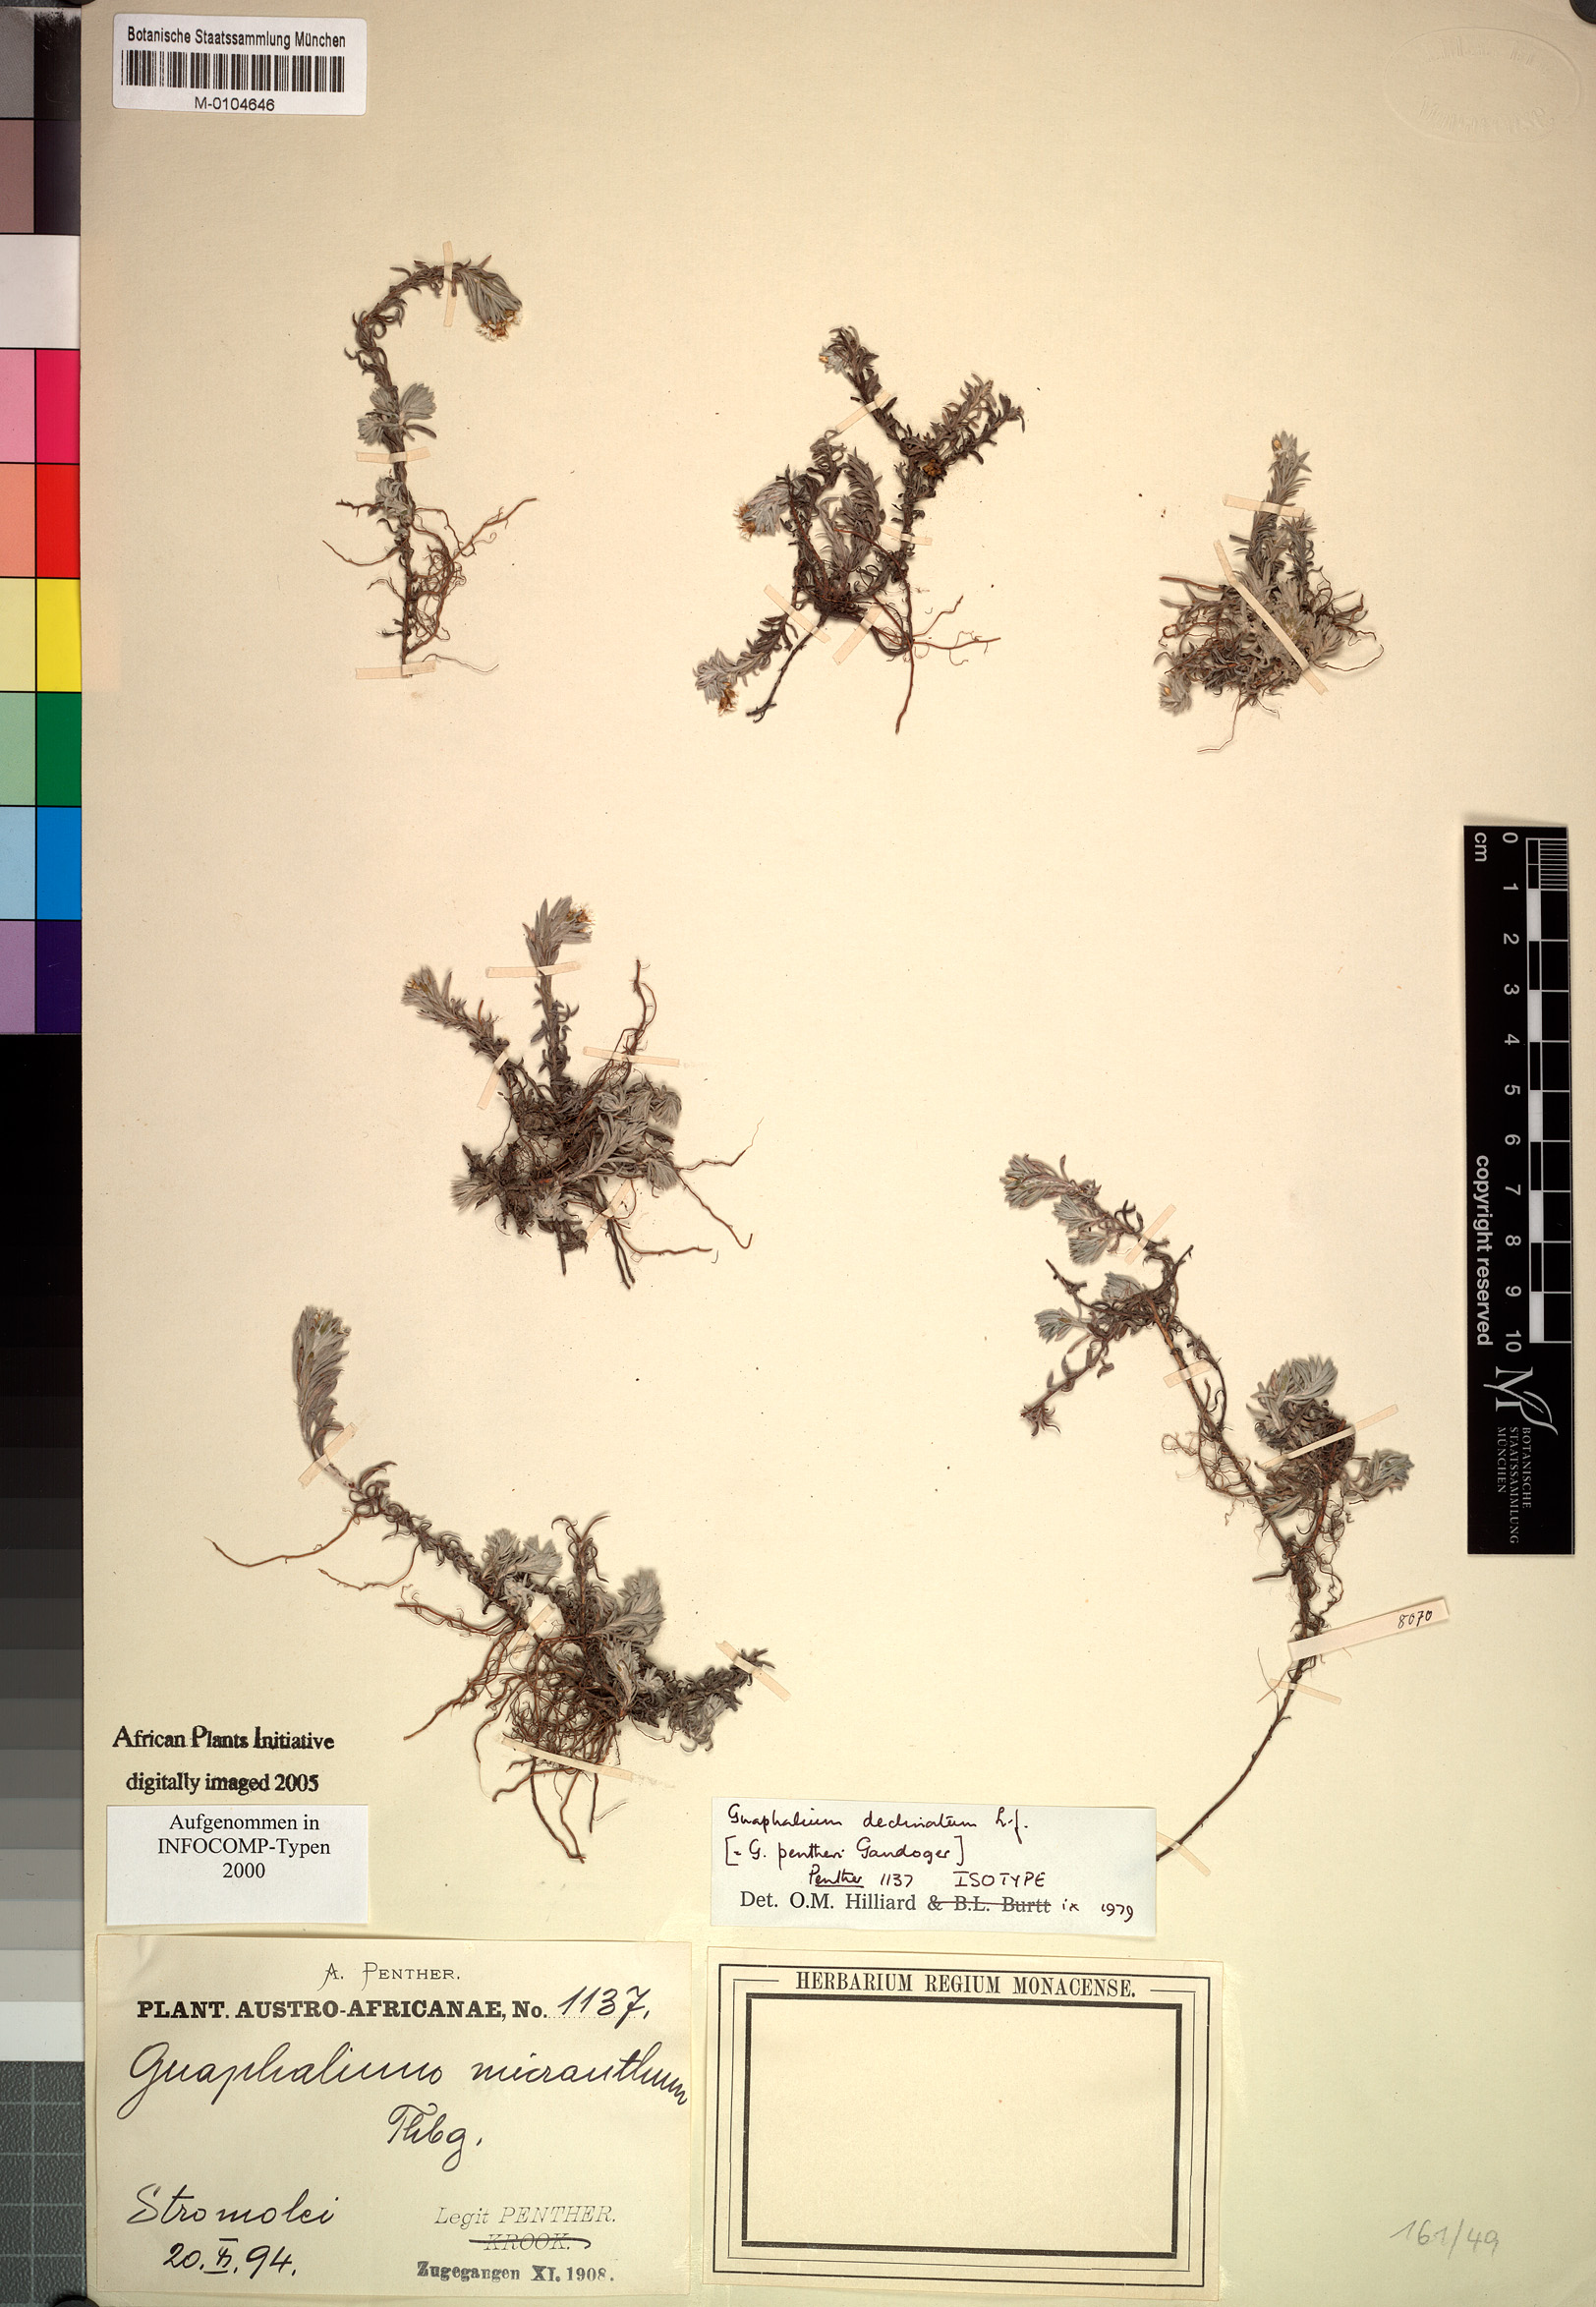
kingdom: Plantae
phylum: Tracheophyta
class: Magnoliopsida
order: Asterales
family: Asteraceae
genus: Gnaphalium
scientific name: Gnaphalium declinatum
